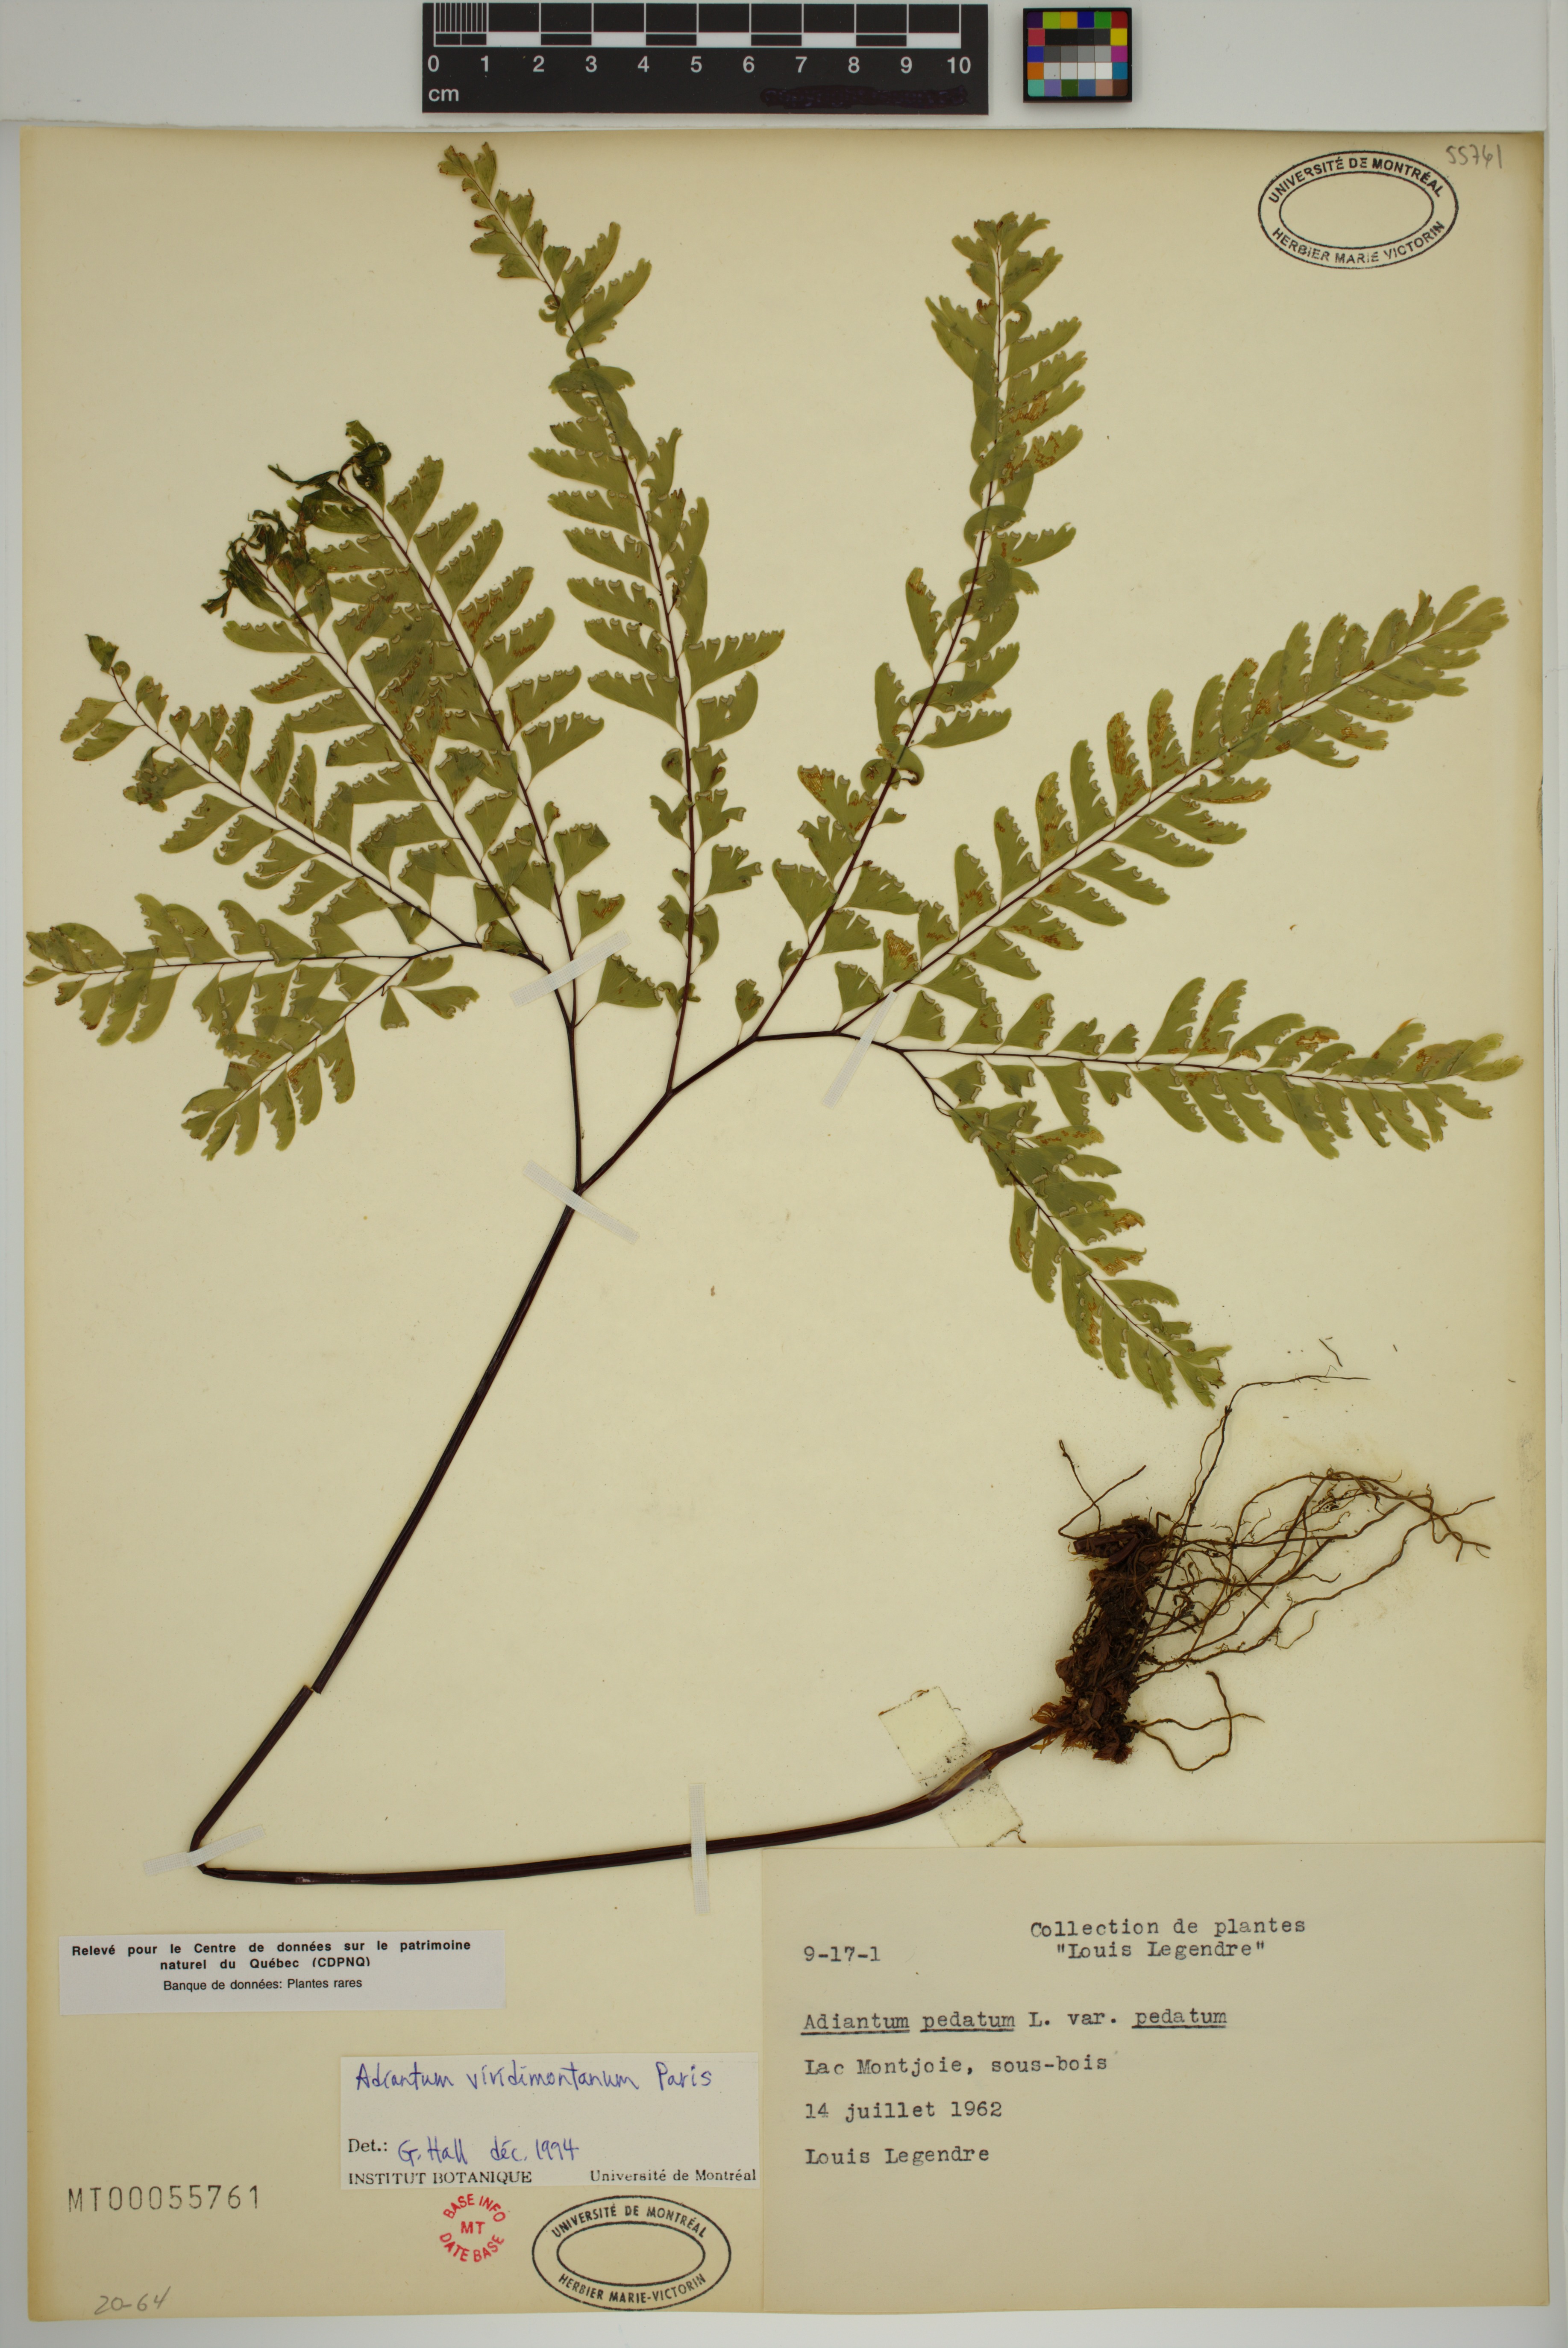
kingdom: Plantae
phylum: Tracheophyta
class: Polypodiopsida
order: Polypodiales
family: Pteridaceae
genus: Adiantum
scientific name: Adiantum viridimontanum
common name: Green mountain maidenhair
